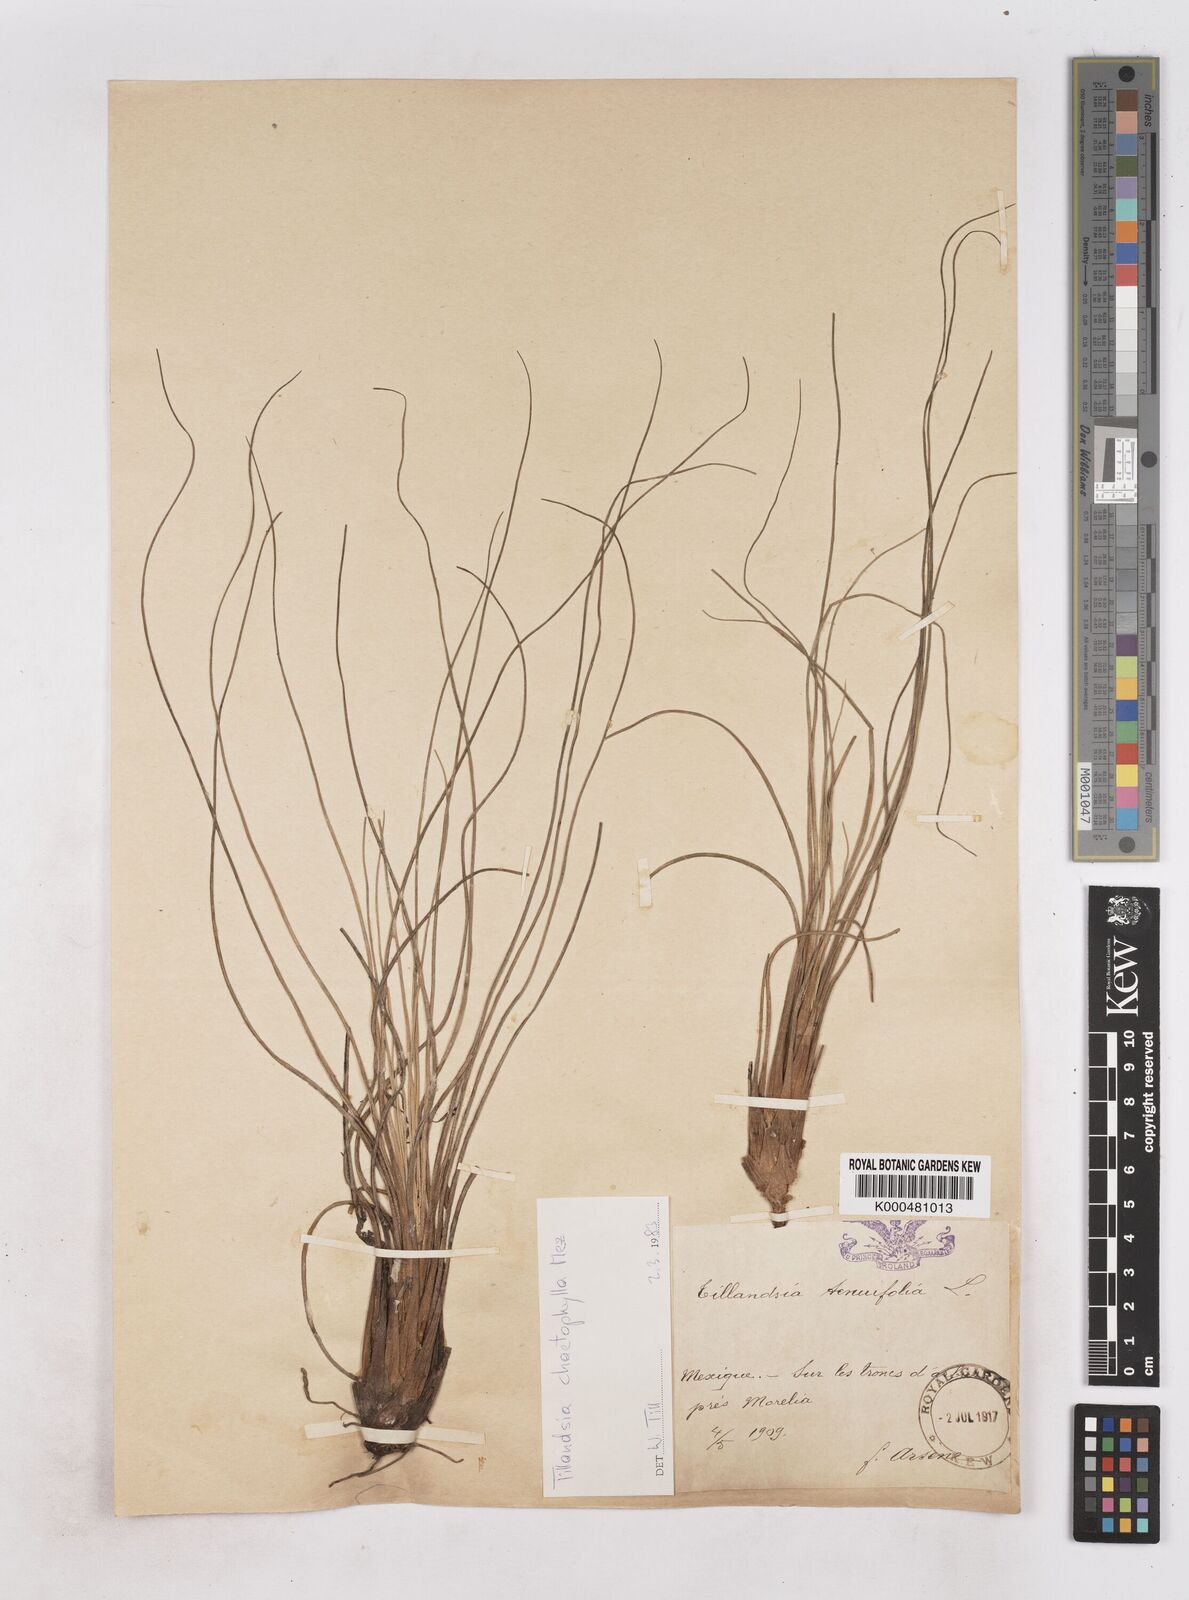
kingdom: Plantae
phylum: Tracheophyta
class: Liliopsida
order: Poales
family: Bromeliaceae
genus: Tillandsia
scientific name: Tillandsia sessemocinoi
